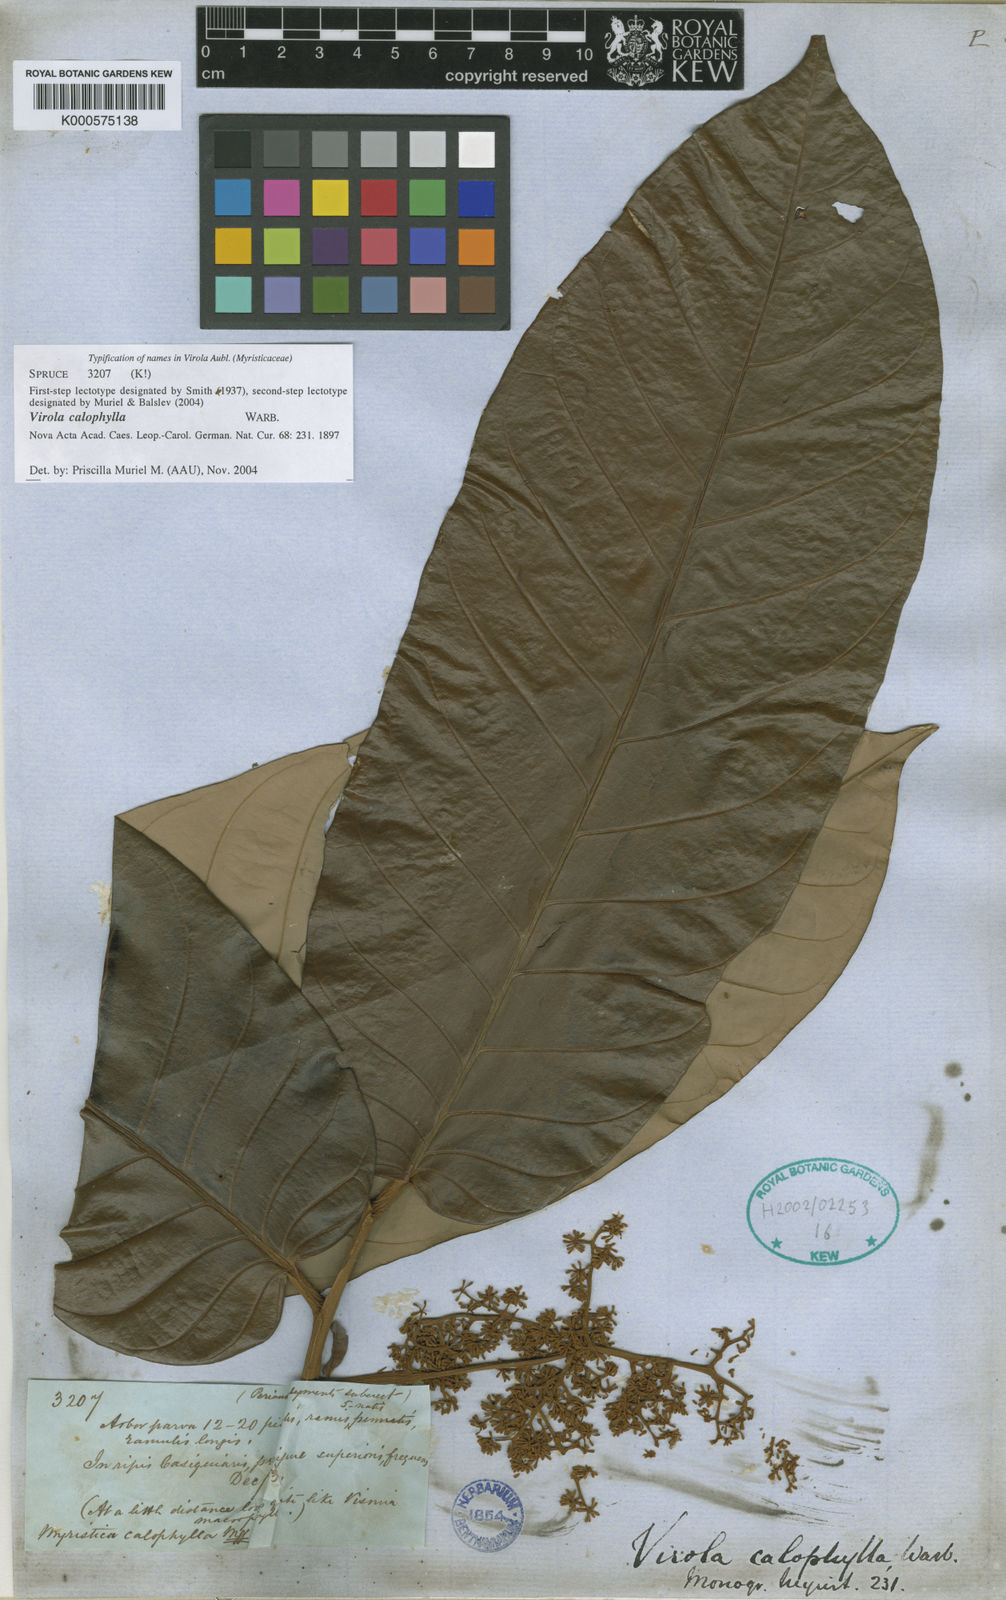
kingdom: Plantae
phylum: Tracheophyta
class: Magnoliopsida
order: Magnoliales
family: Myristicaceae
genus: Virola
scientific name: Virola calophylla
